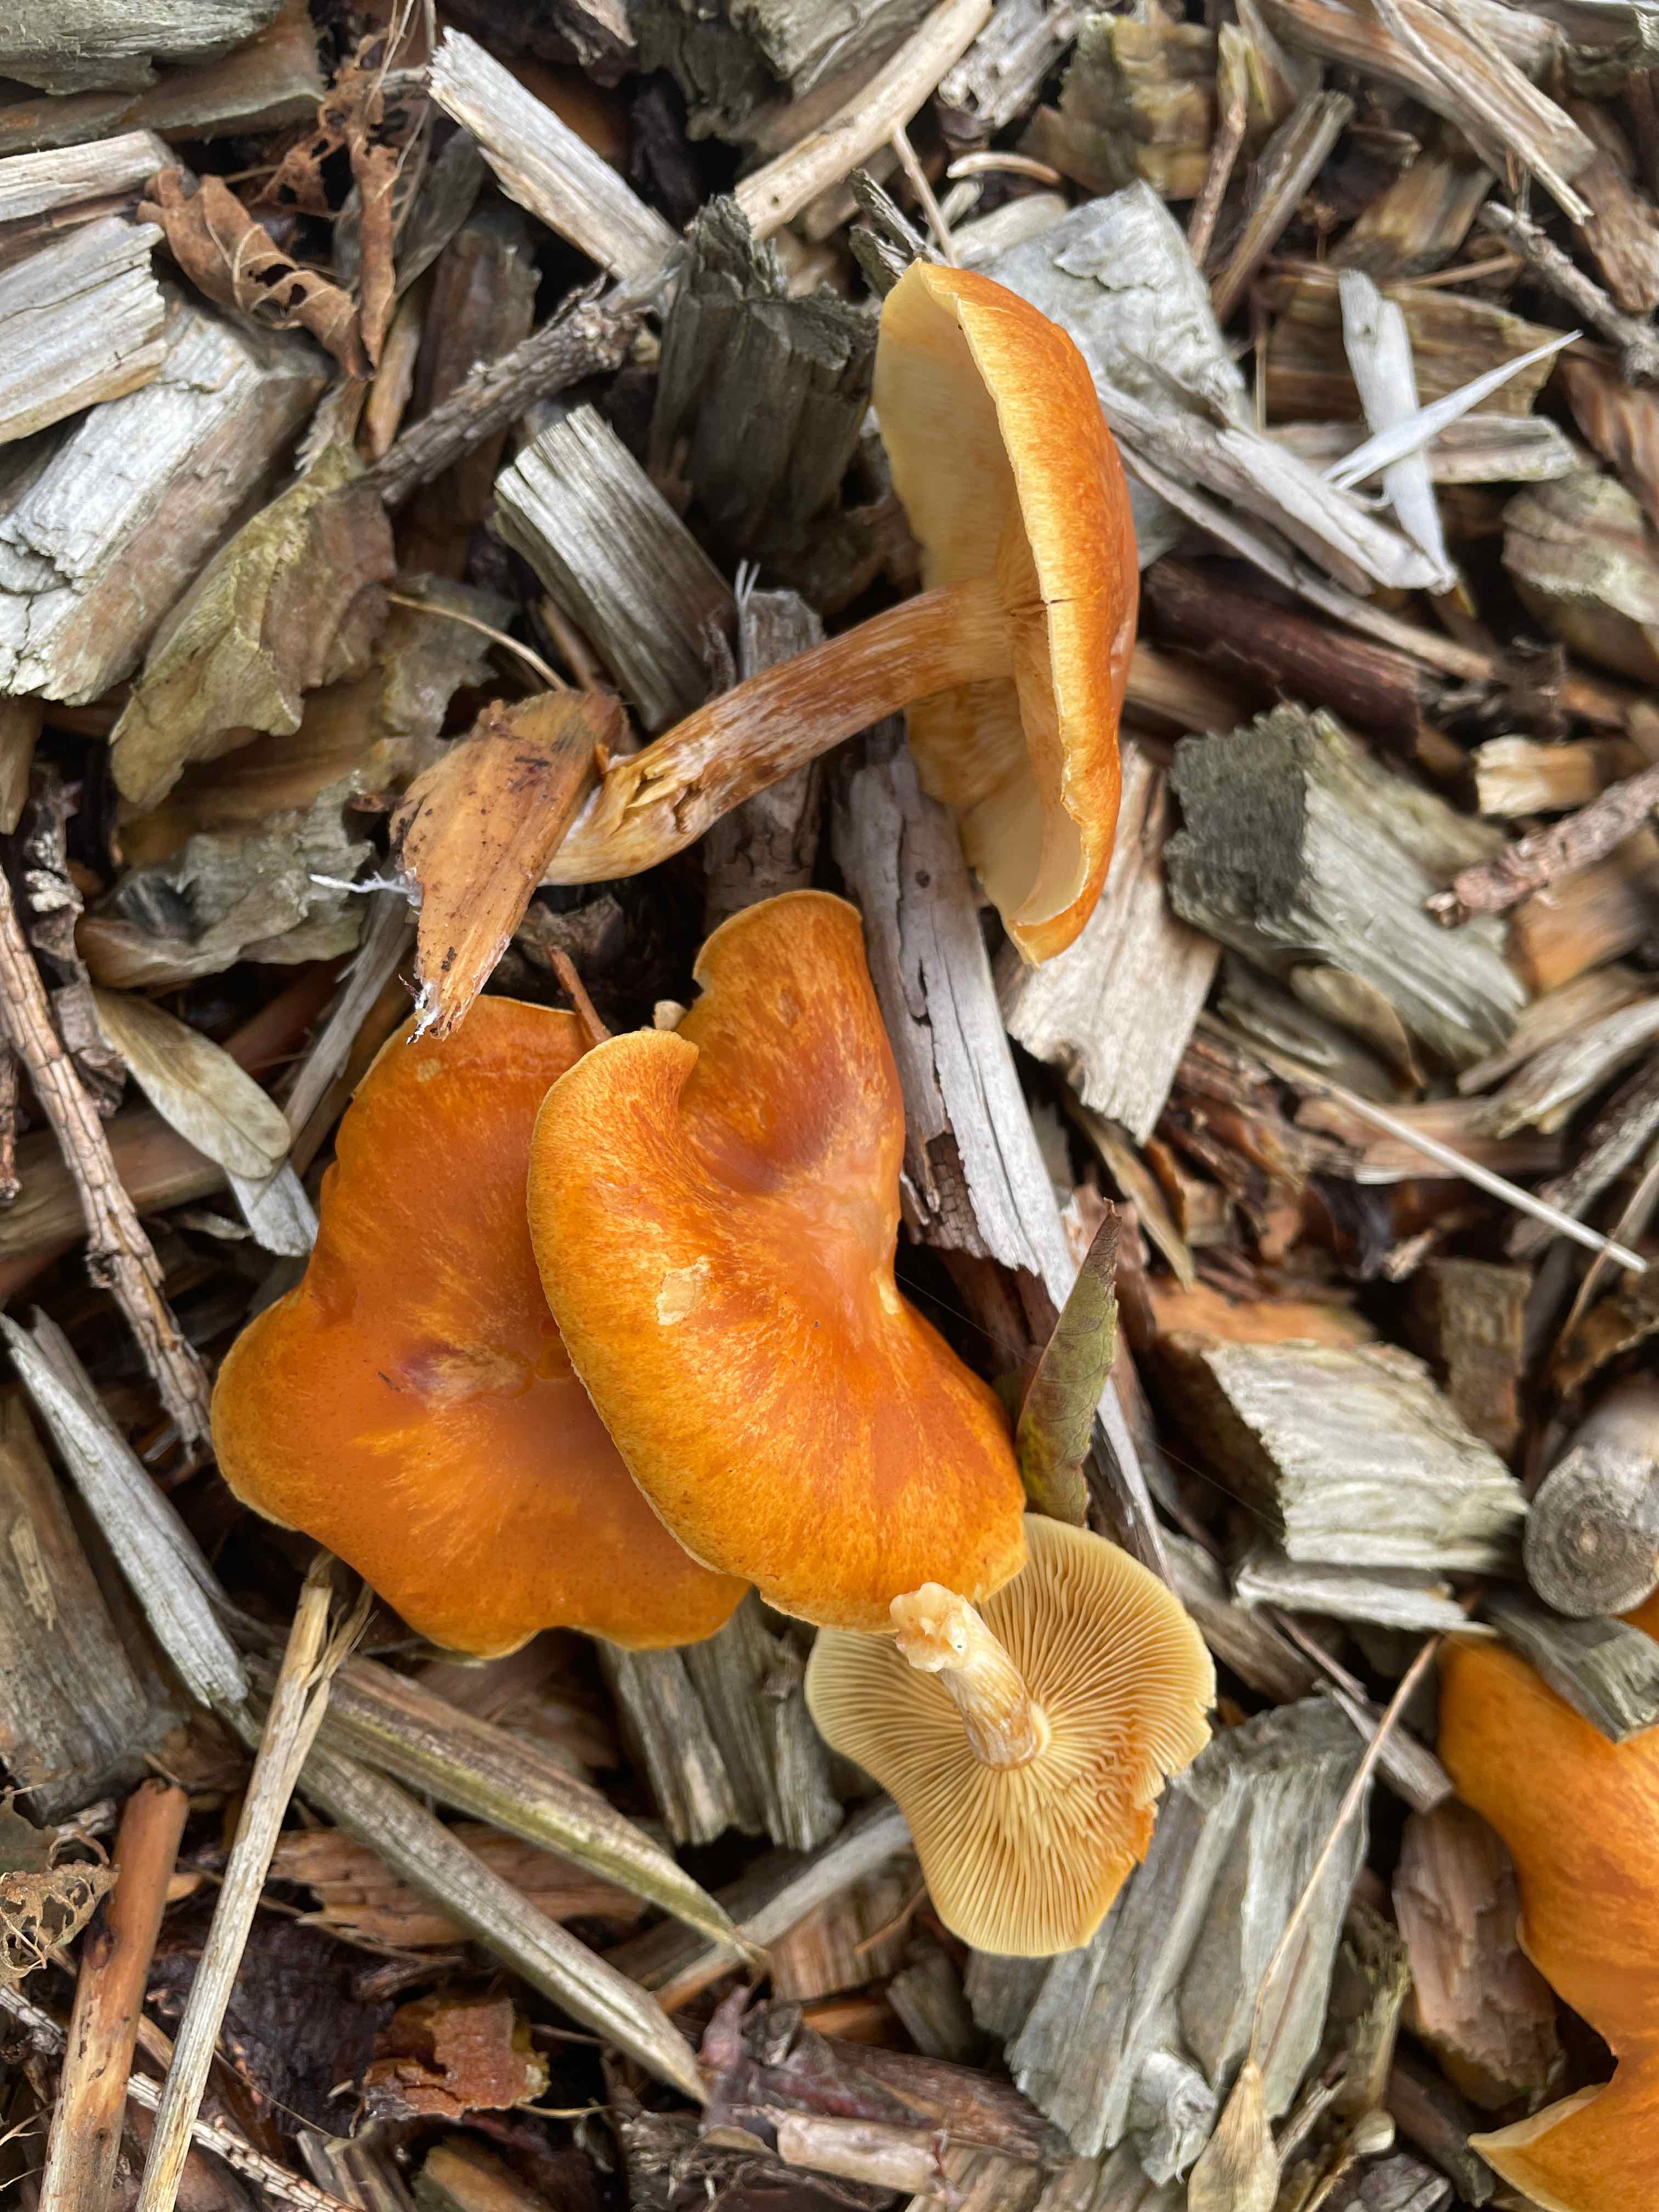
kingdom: Fungi
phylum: Basidiomycota
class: Agaricomycetes
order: Agaricales
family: Hymenogastraceae
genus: Gymnopilus
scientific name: Gymnopilus penetrans
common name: plettet flammehat
